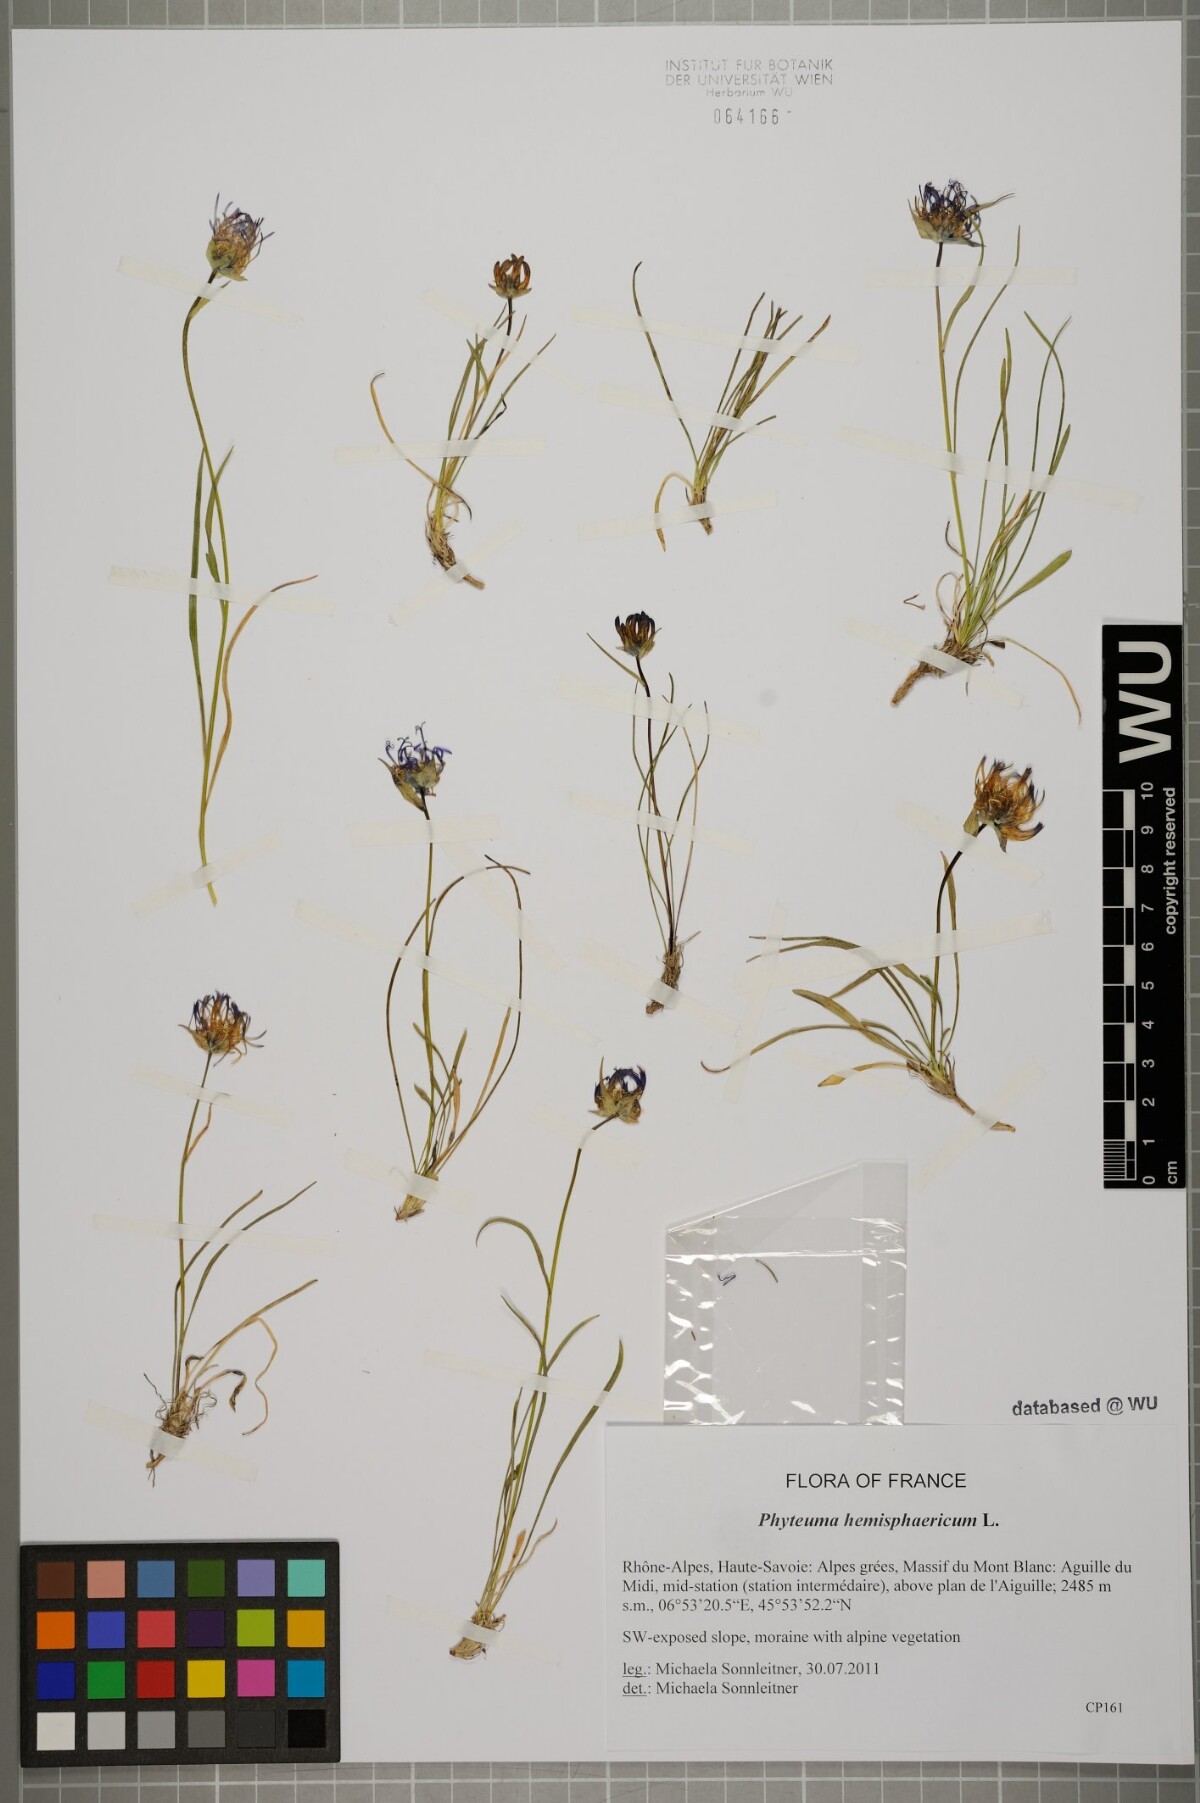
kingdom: Plantae
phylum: Tracheophyta
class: Magnoliopsida
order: Asterales
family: Campanulaceae
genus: Phyteuma
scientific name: Phyteuma hemisphaericum
